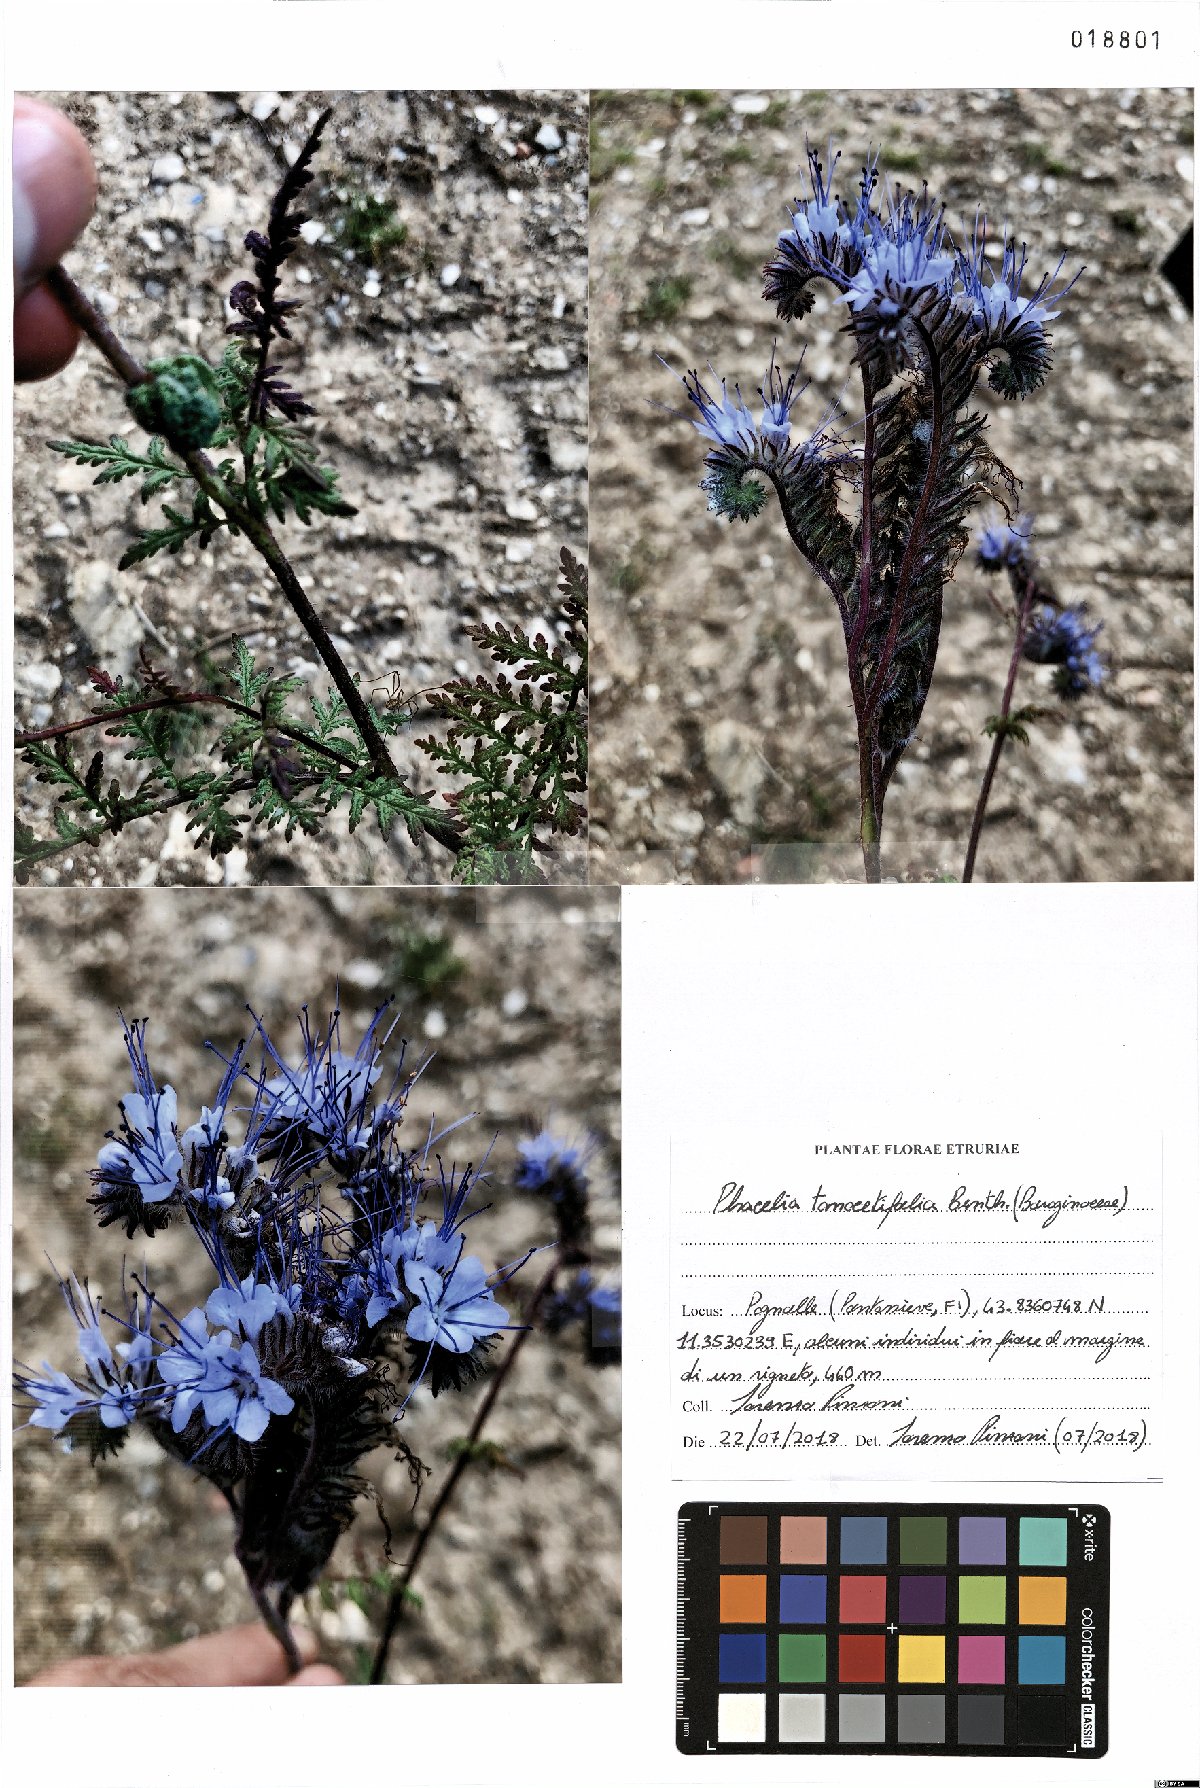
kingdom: Plantae
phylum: Tracheophyta
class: Magnoliopsida
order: Boraginales
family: Hydrophyllaceae
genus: Phacelia
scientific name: Phacelia tanacetifolia
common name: Phacelia
